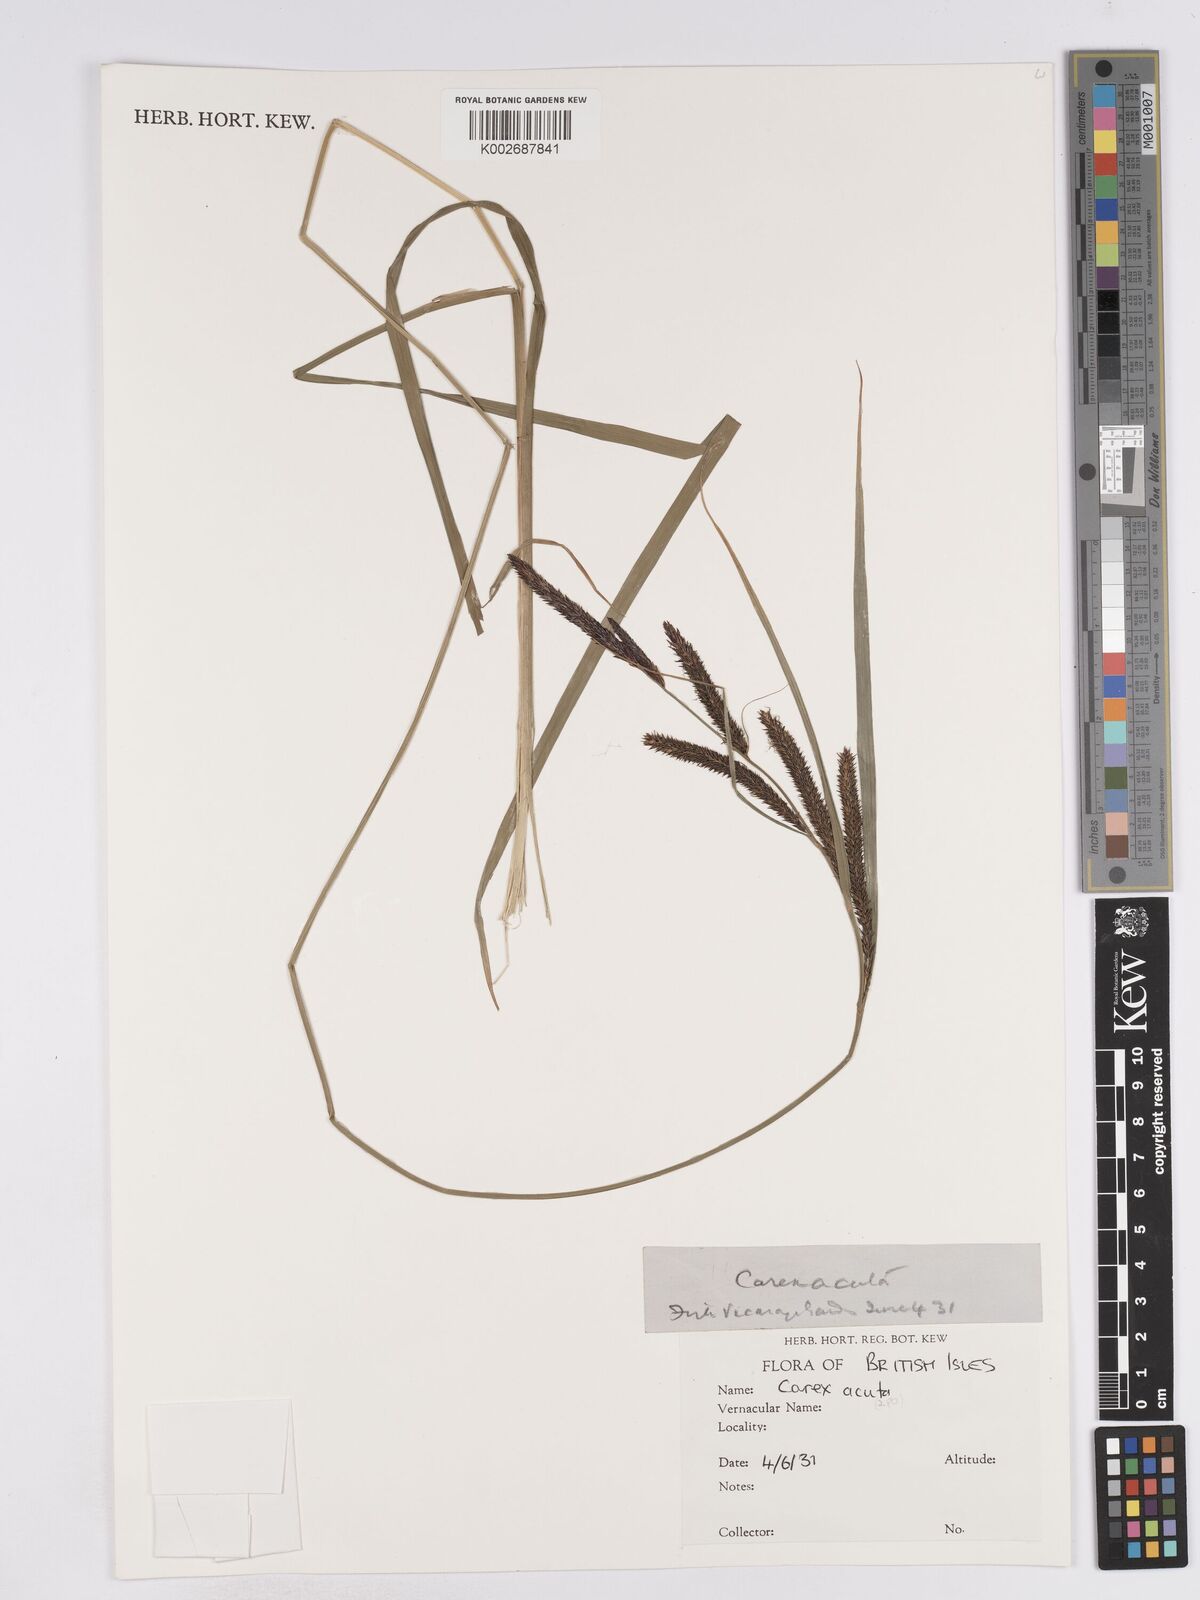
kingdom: Plantae
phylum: Tracheophyta
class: Liliopsida
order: Poales
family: Cyperaceae
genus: Carex
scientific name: Carex acuta
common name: Slender tufted-sedge
